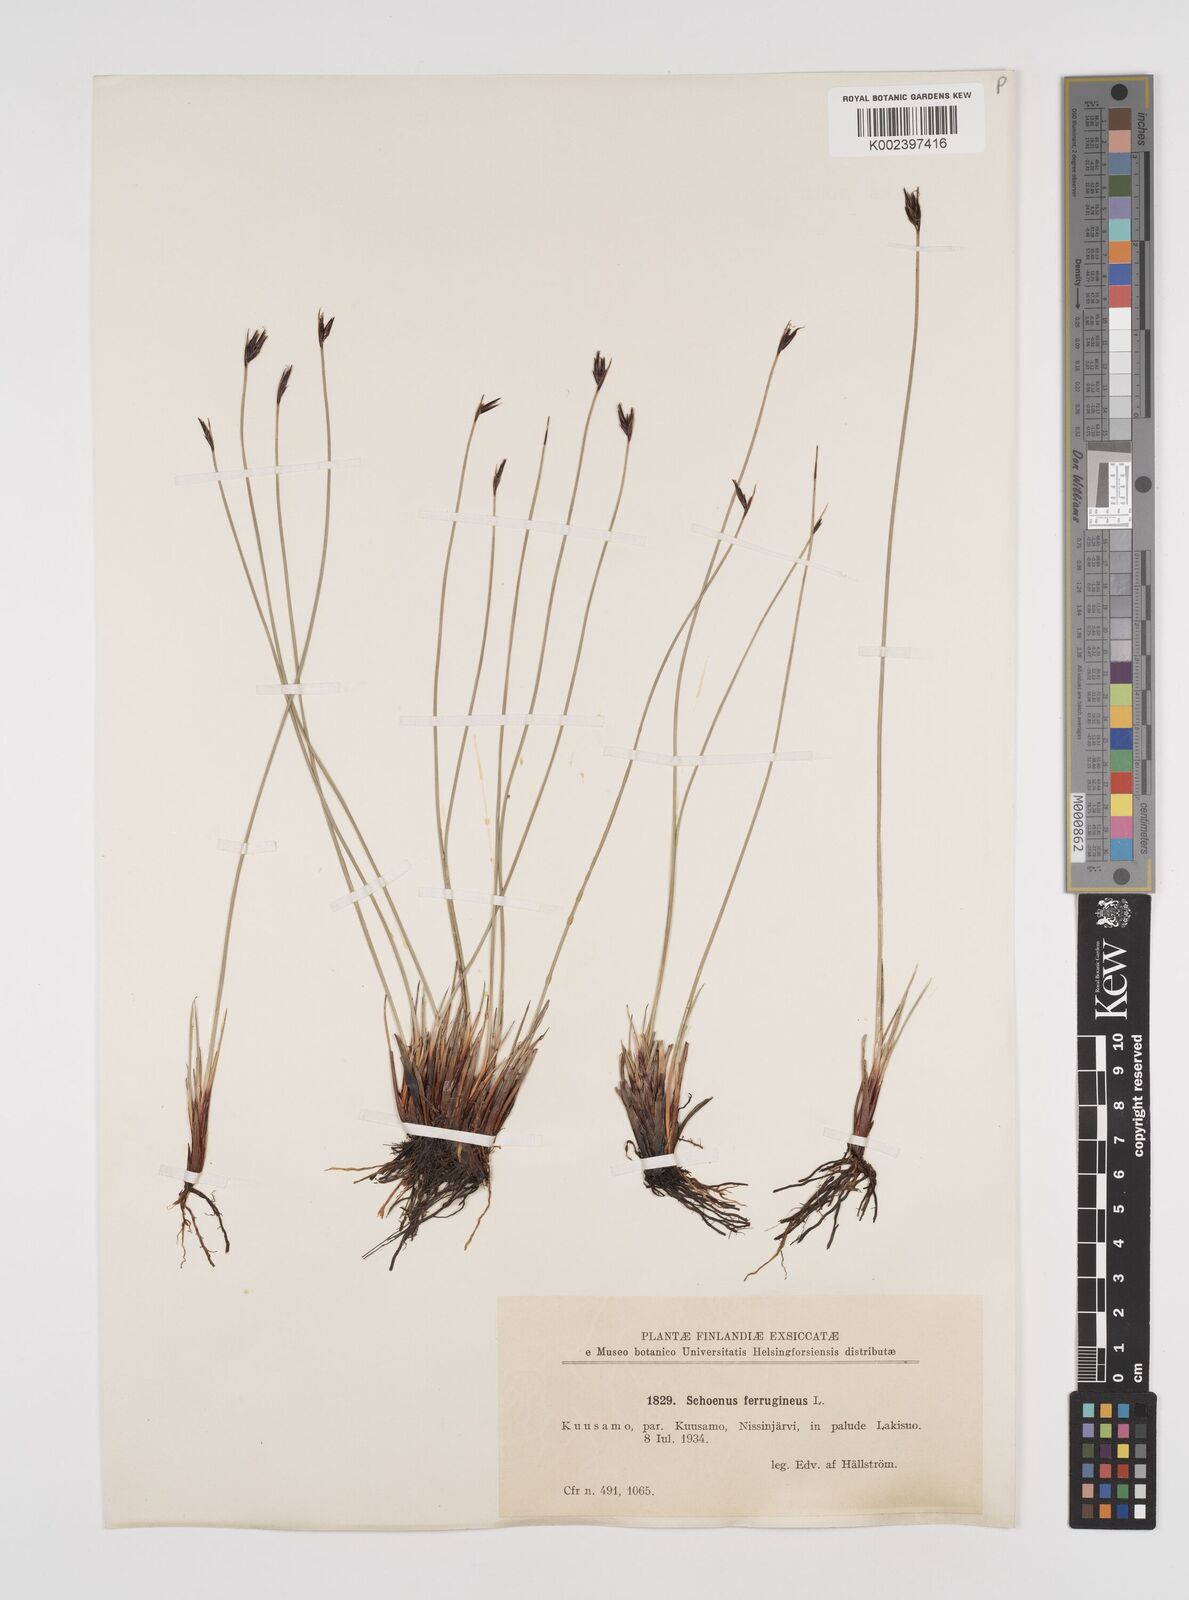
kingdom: Plantae
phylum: Tracheophyta
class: Liliopsida
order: Poales
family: Cyperaceae
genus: Schoenus
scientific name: Schoenus ferrugineus
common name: Brown bog-rush
